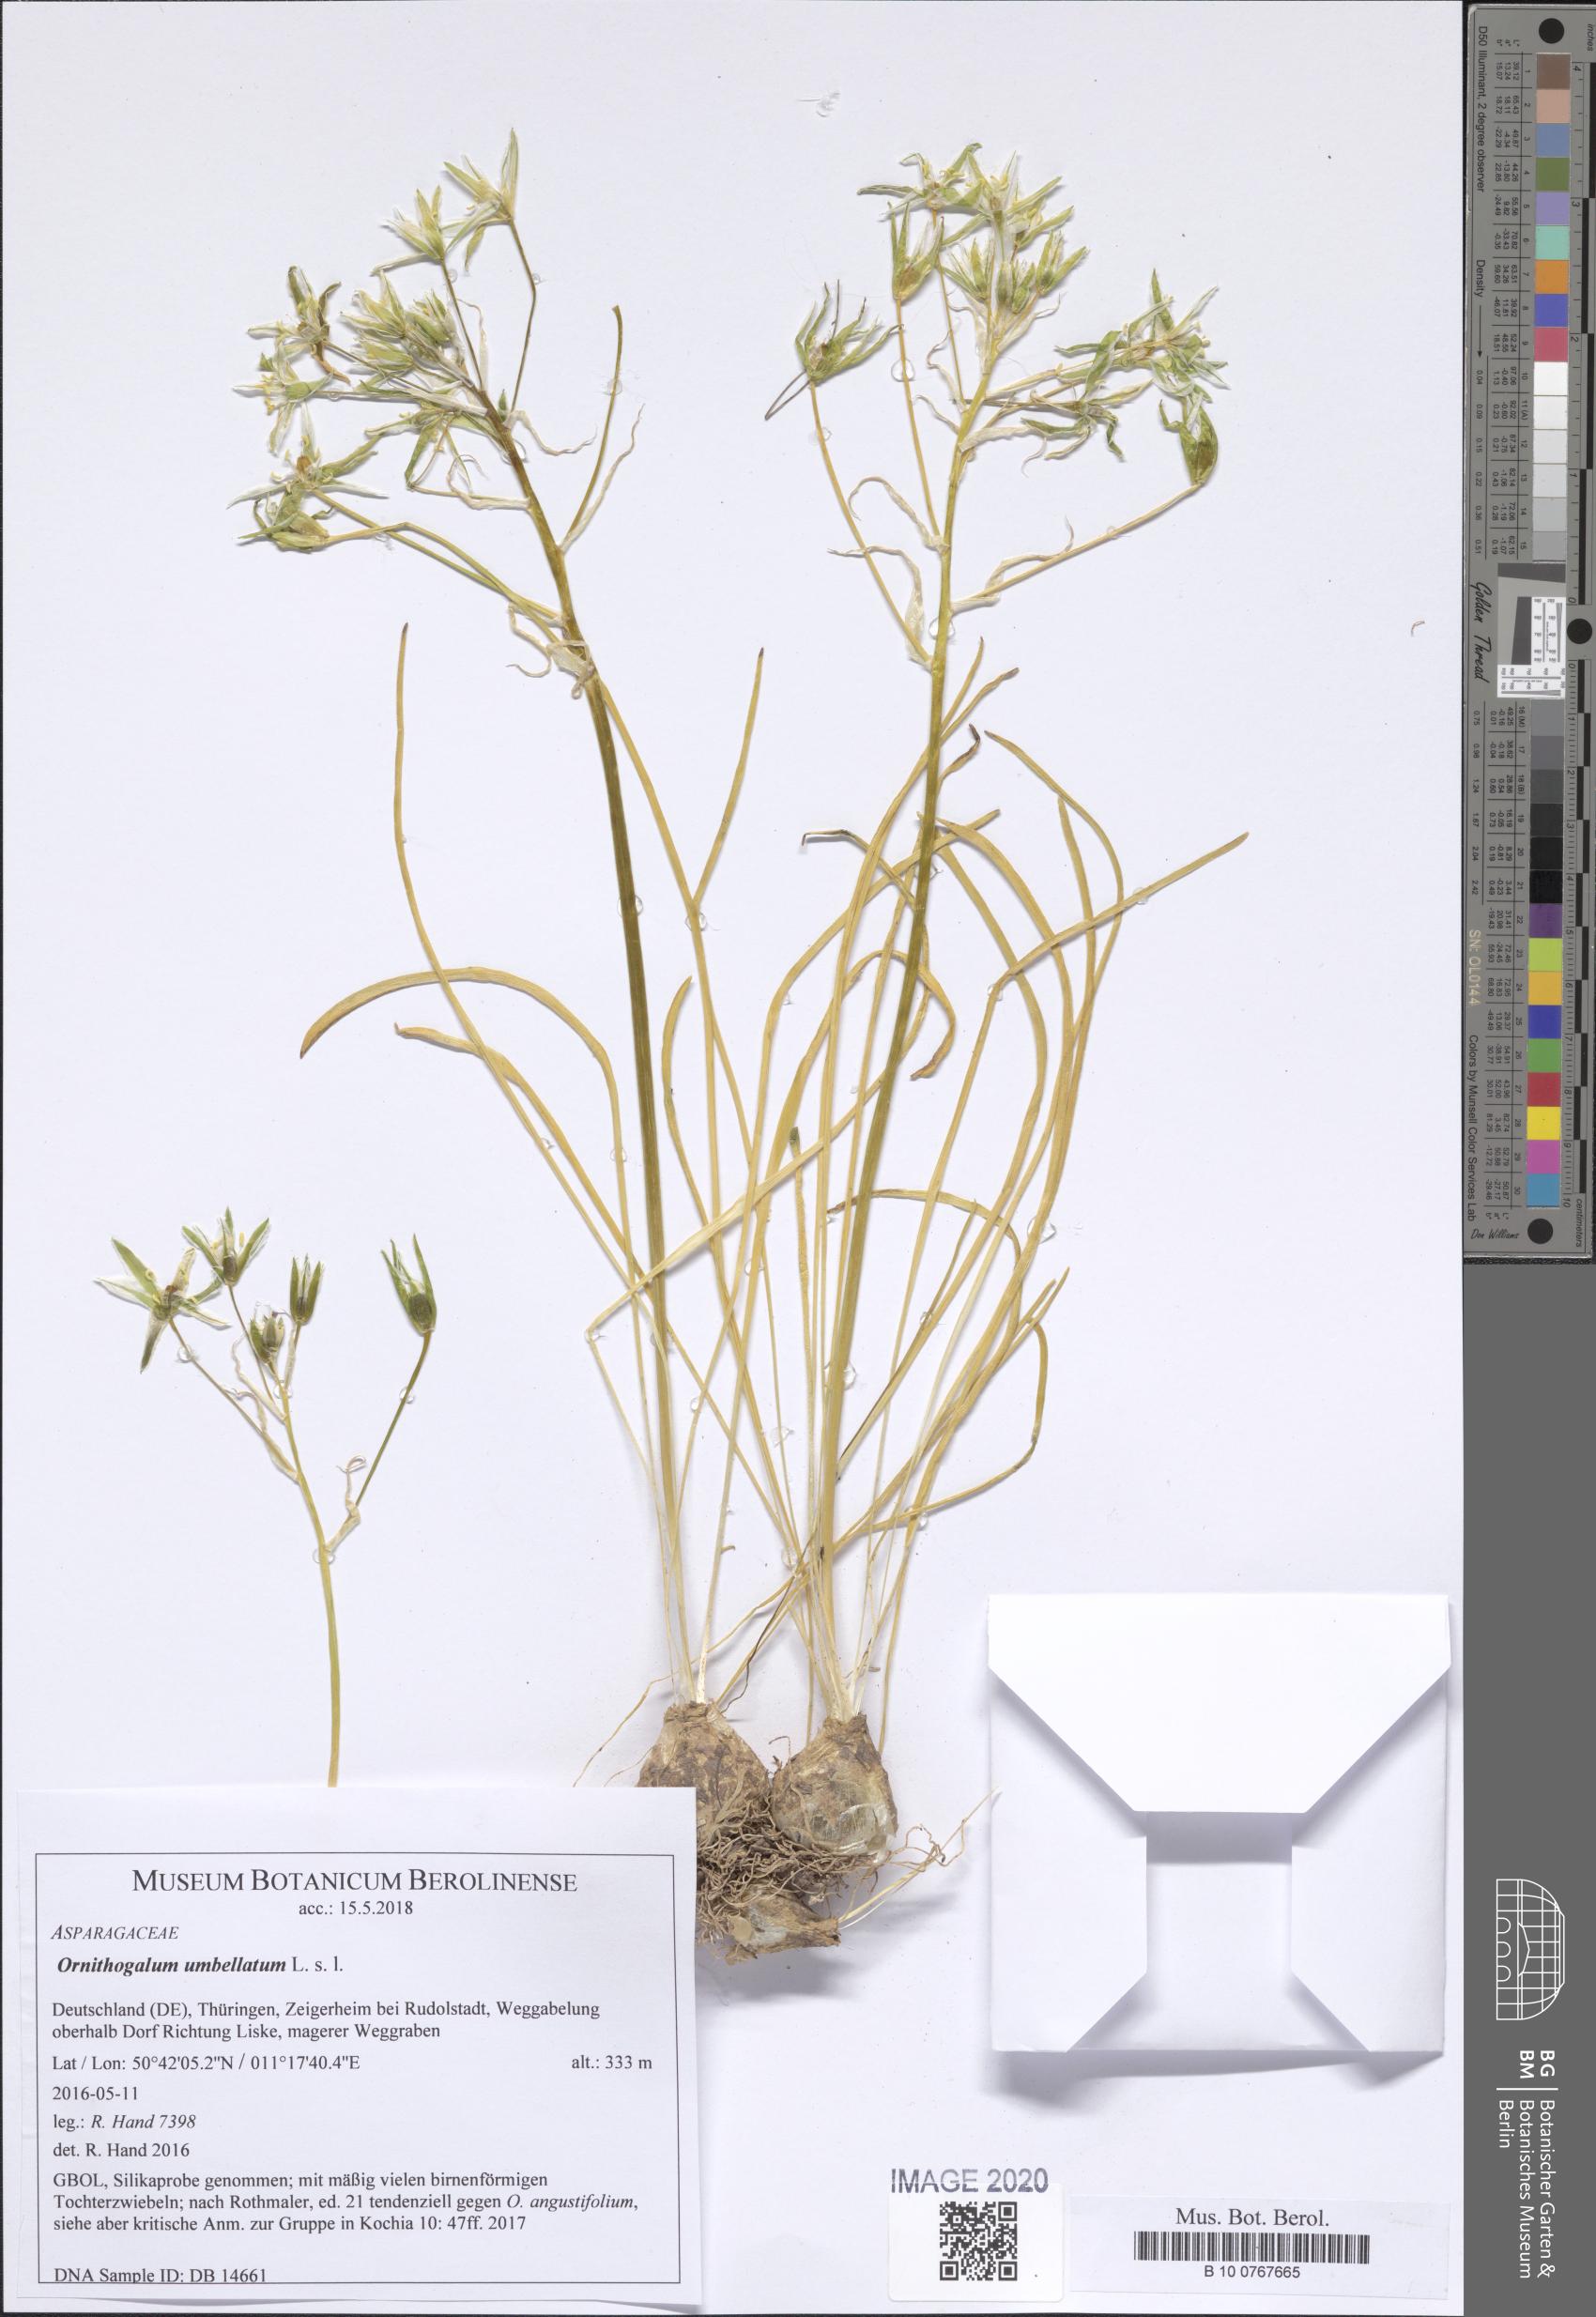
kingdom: Plantae
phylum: Tracheophyta
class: Liliopsida
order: Asparagales
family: Asparagaceae
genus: Ornithogalum
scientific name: Ornithogalum umbellatum
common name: Garden star-of-bethlehem
